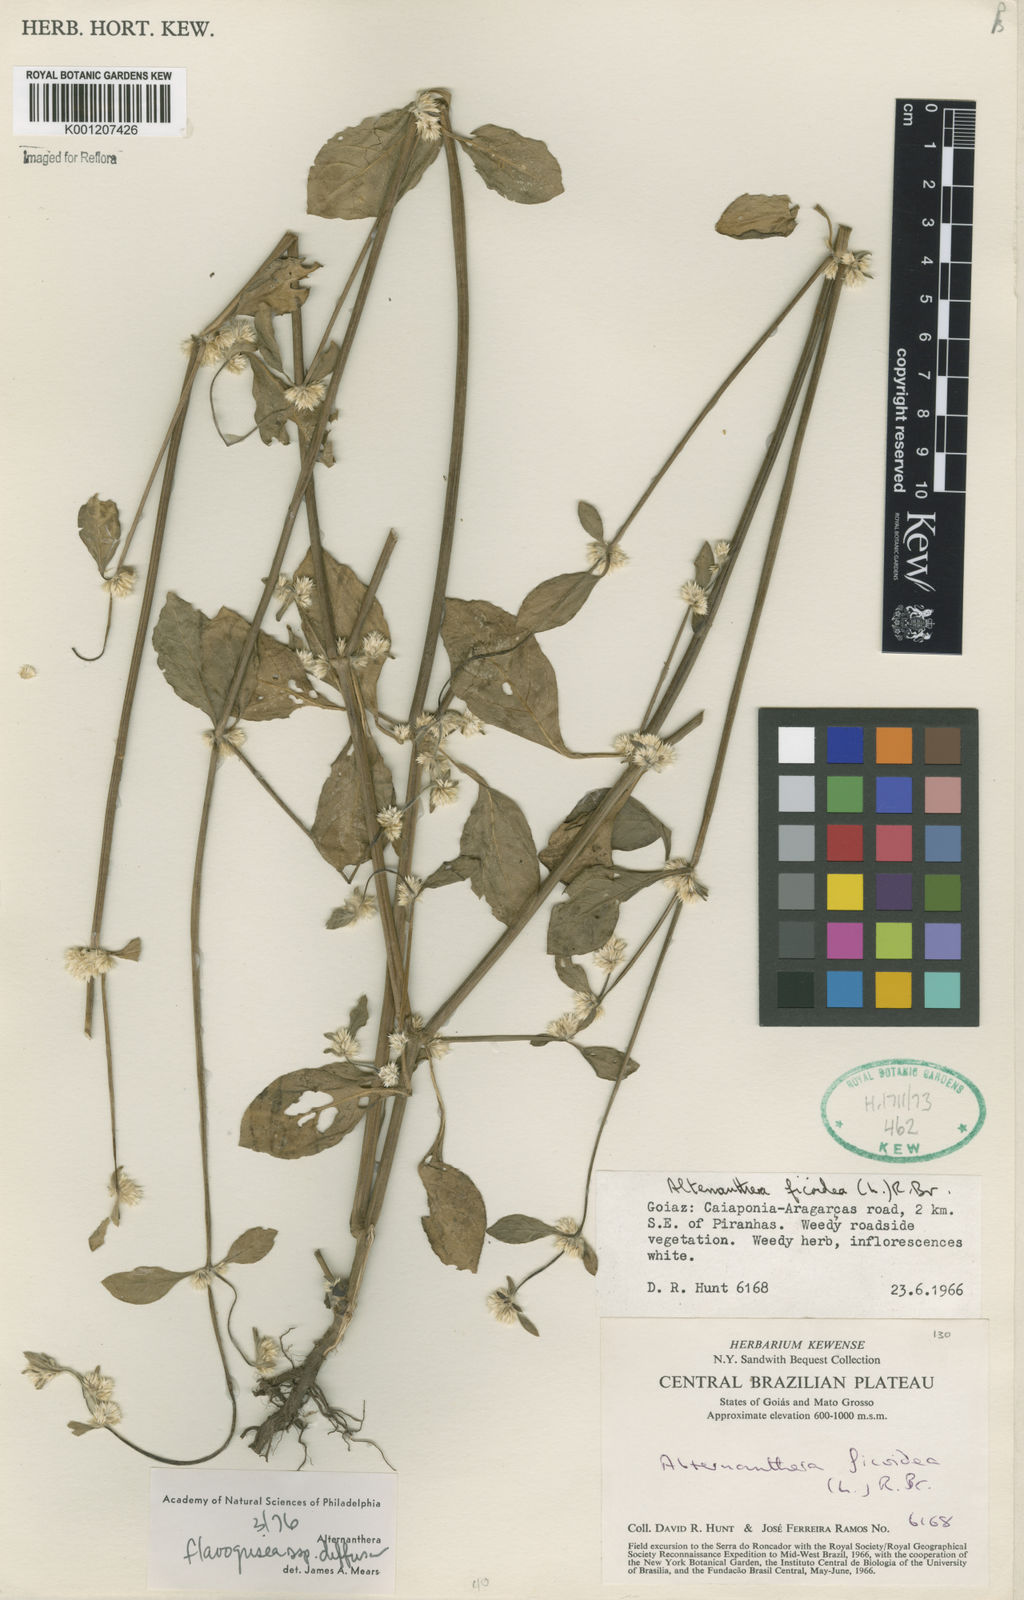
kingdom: Plantae
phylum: Tracheophyta
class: Magnoliopsida
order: Caryophyllales
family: Amaranthaceae
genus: Alternanthera
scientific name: Alternanthera halimifolia
